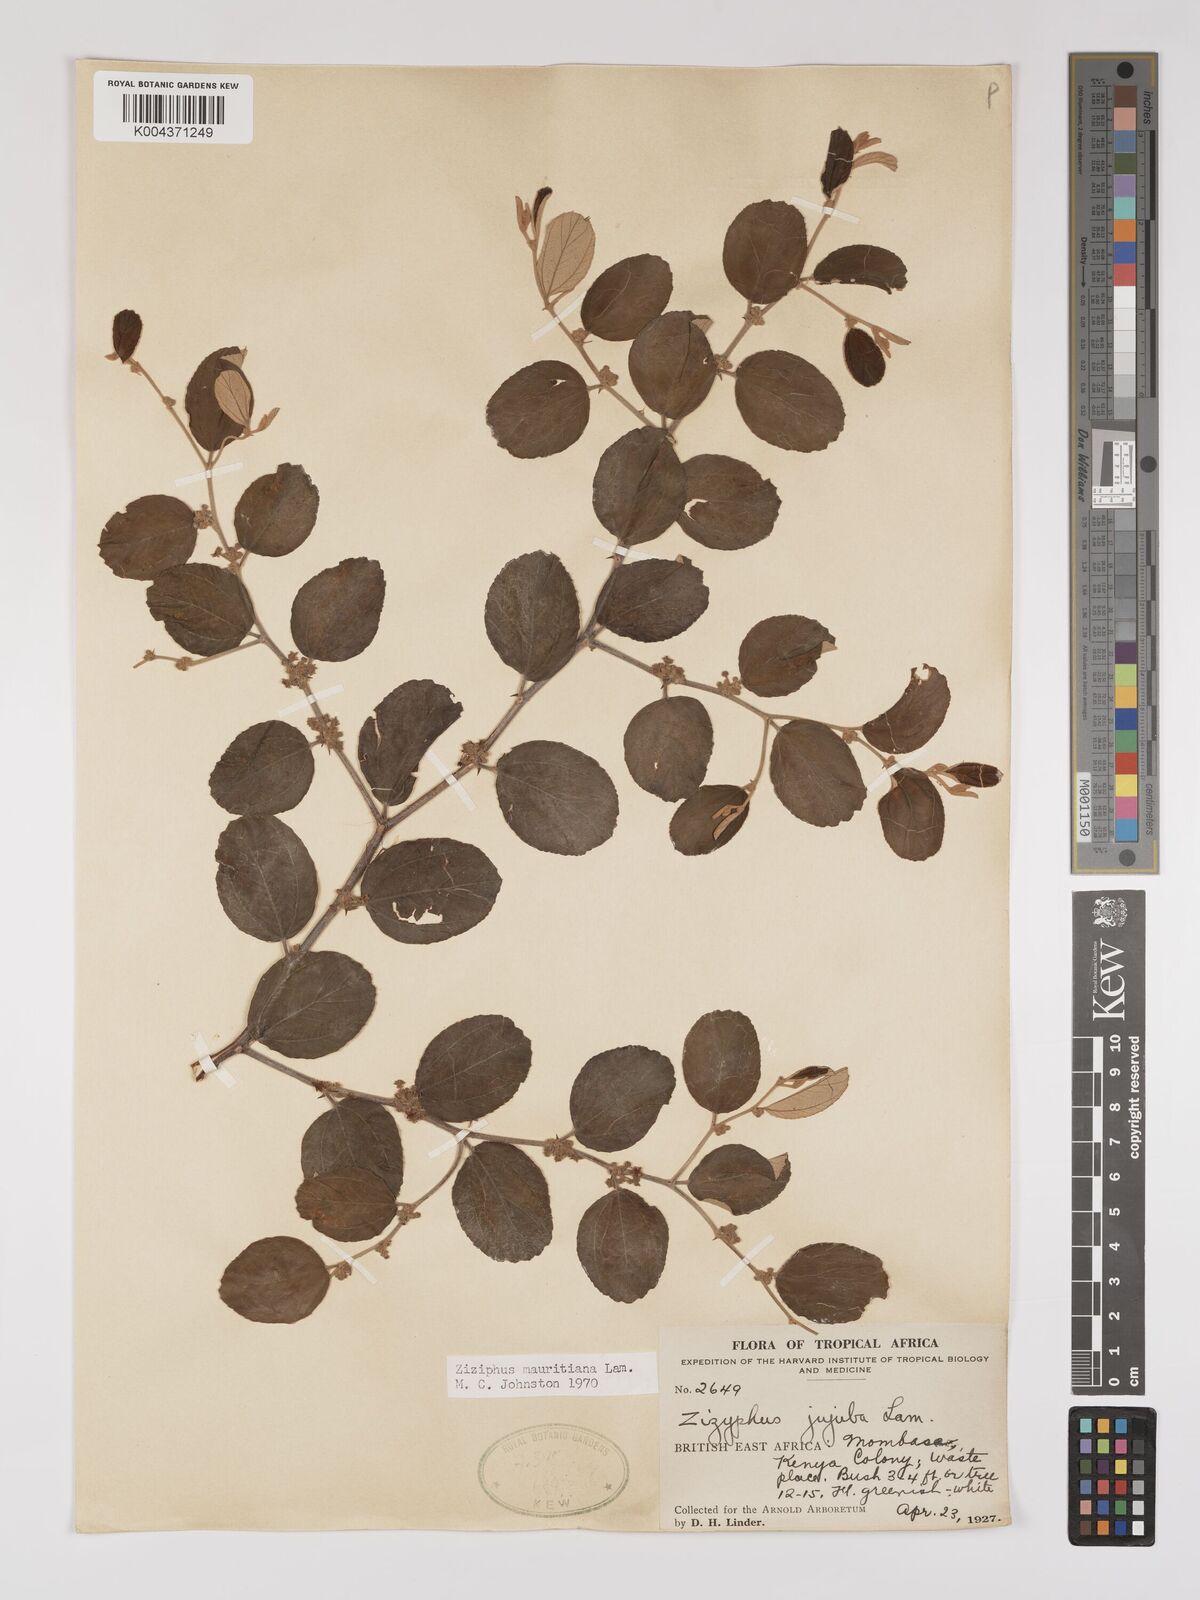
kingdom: Plantae
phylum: Tracheophyta
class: Magnoliopsida
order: Rosales
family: Rhamnaceae
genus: Ziziphus
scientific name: Ziziphus mauritiana
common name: Indian jujube
